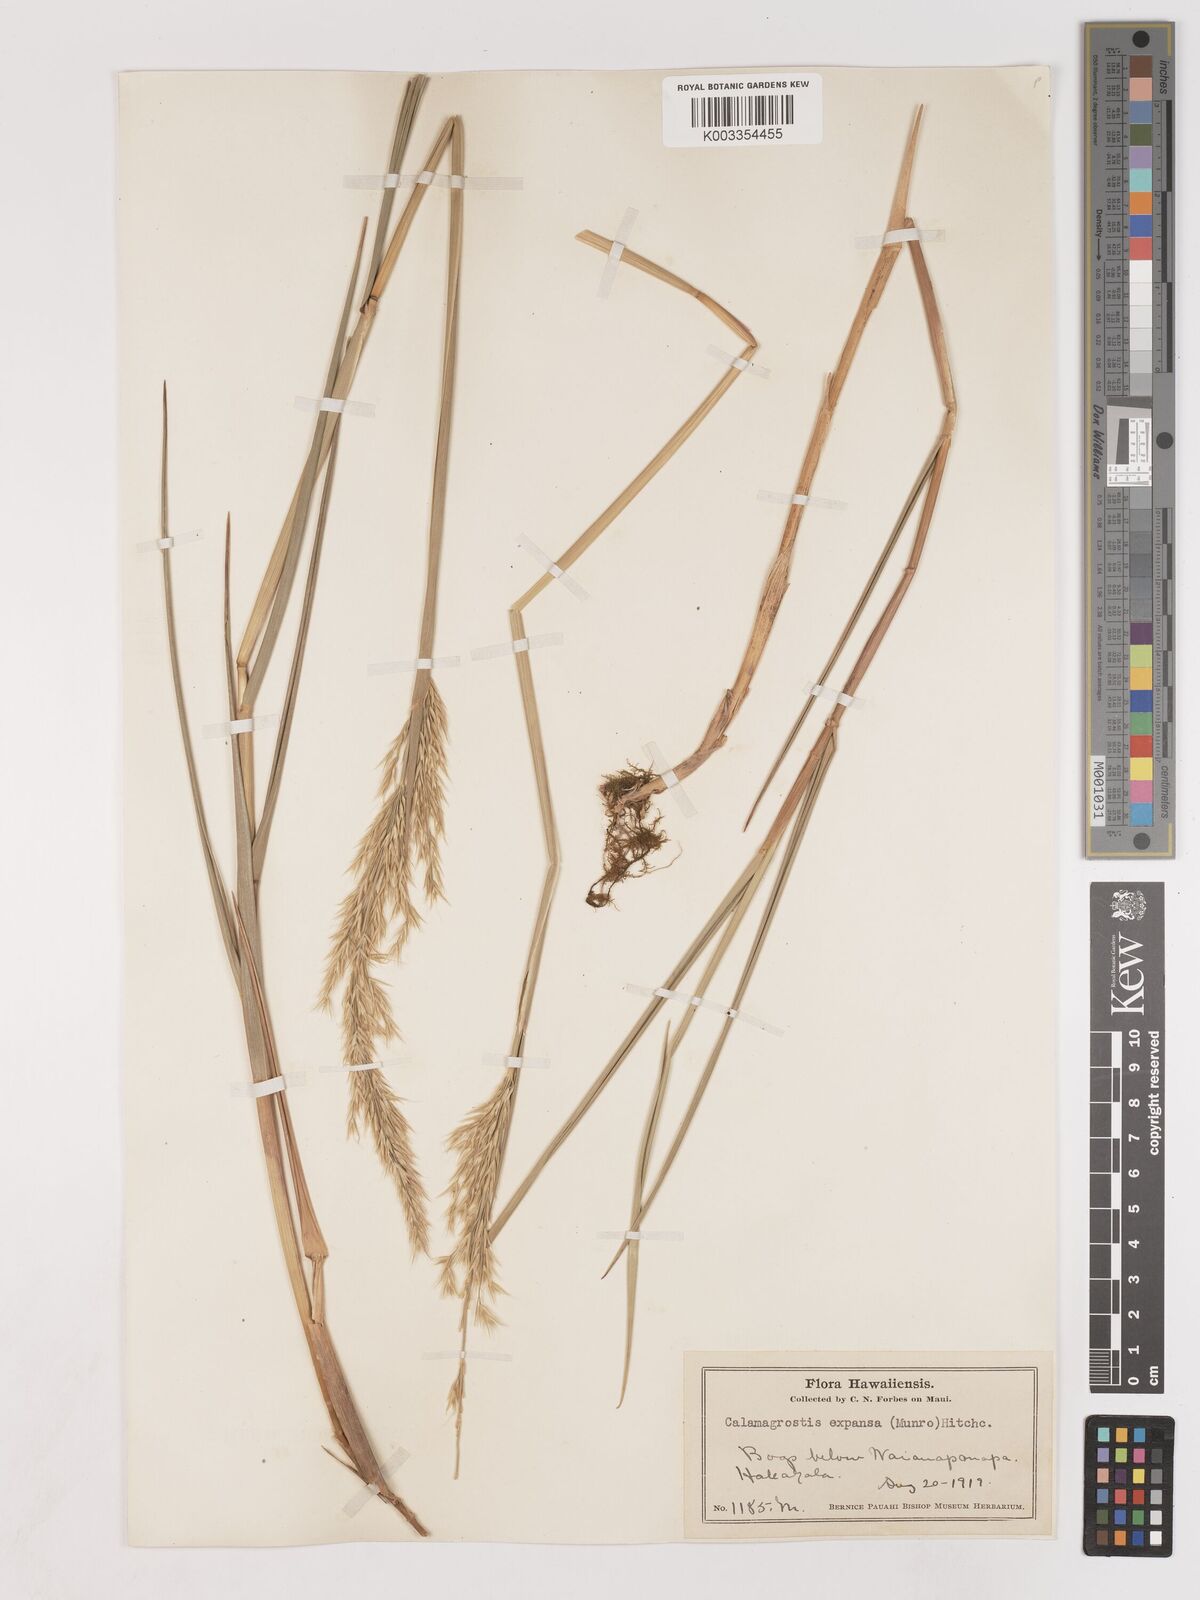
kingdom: Plantae
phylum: Tracheophyta
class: Liliopsida
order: Poales
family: Poaceae
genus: Calamagrostis
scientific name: Calamagrostis expansa
